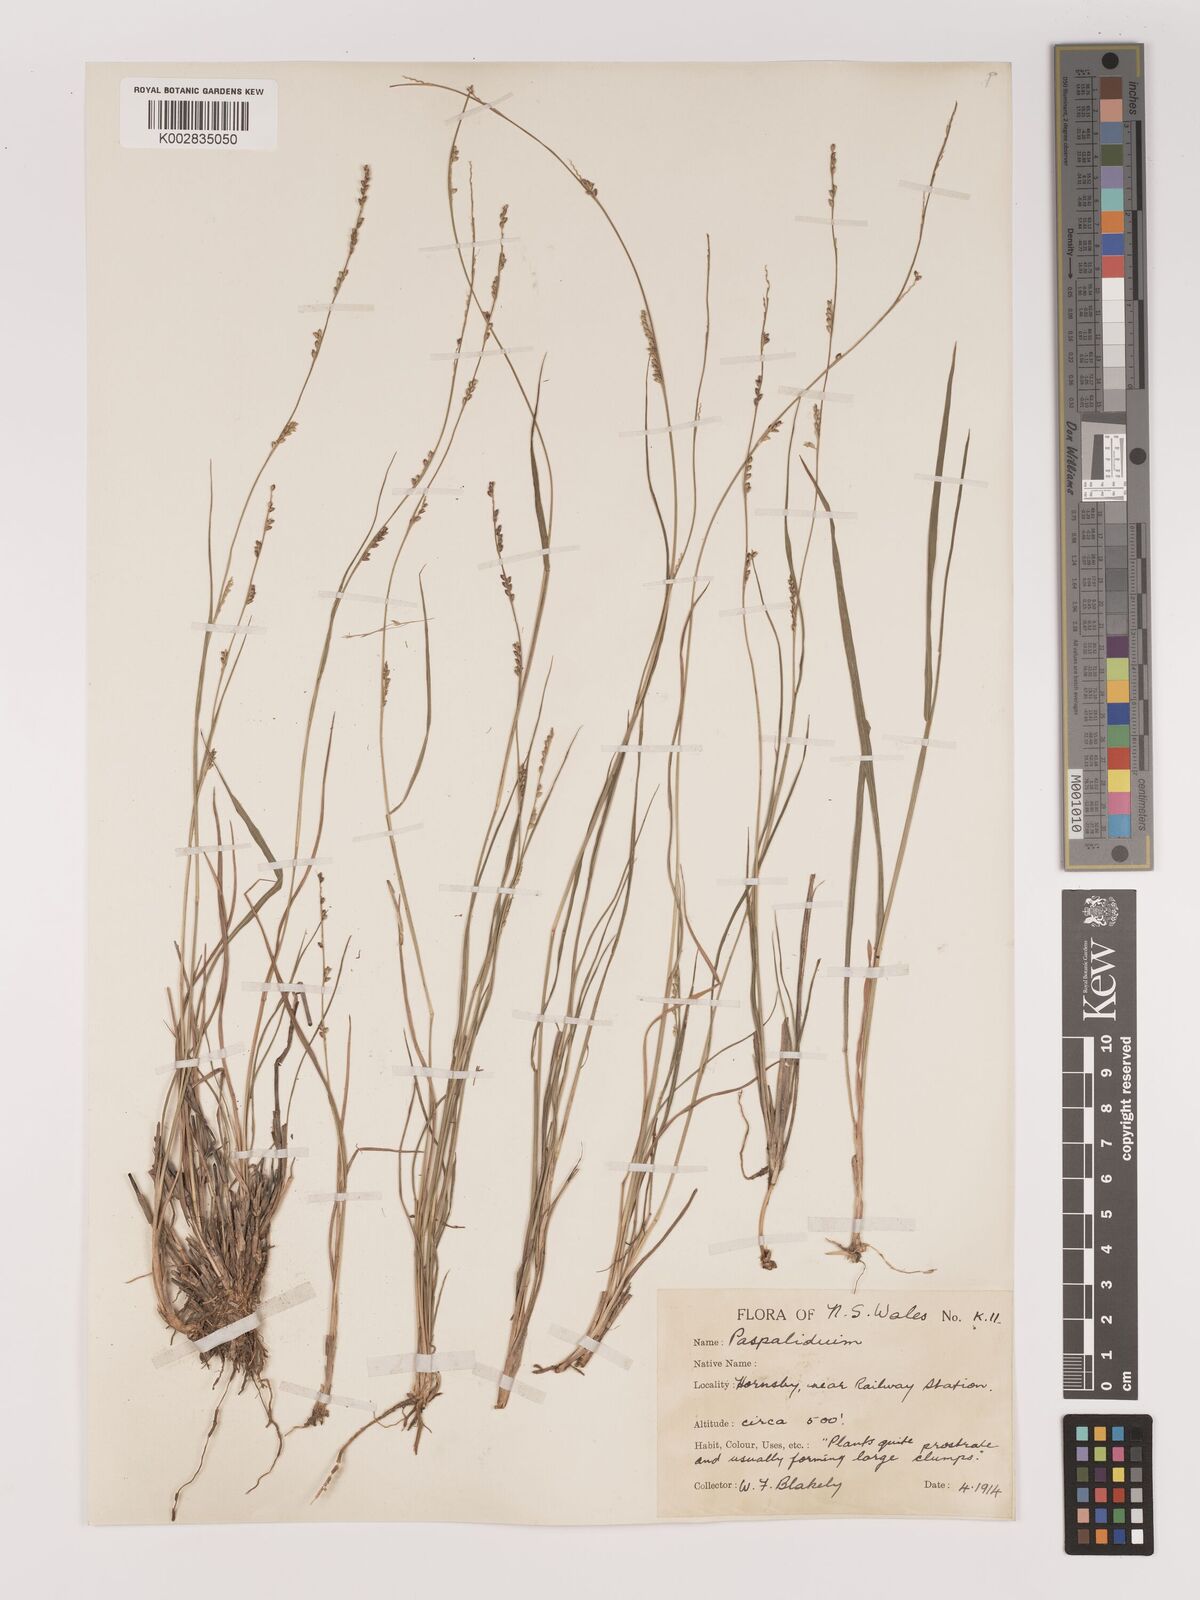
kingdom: Plantae
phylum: Tracheophyta
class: Liliopsida
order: Poales
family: Poaceae
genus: Setaria
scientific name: Setaria
